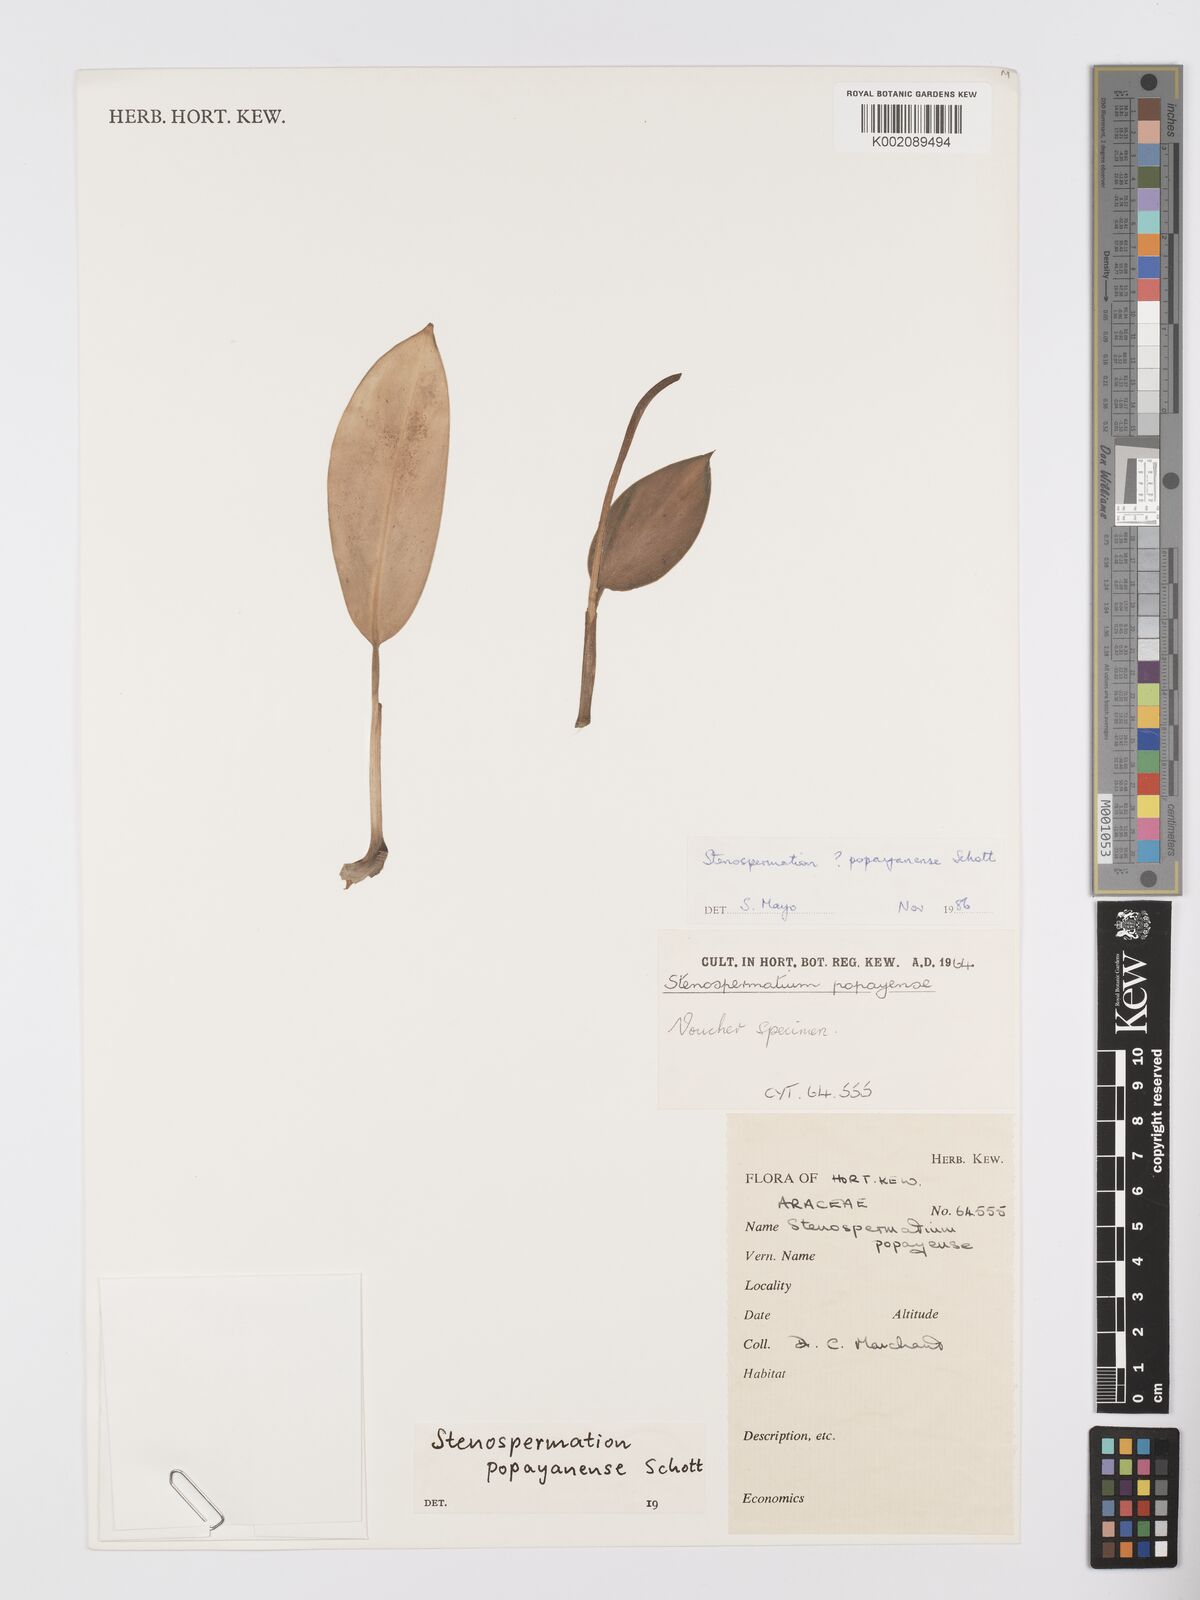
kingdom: Plantae
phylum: Tracheophyta
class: Liliopsida
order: Alismatales
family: Araceae
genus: Stenospermation
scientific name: Stenospermation popayanense
